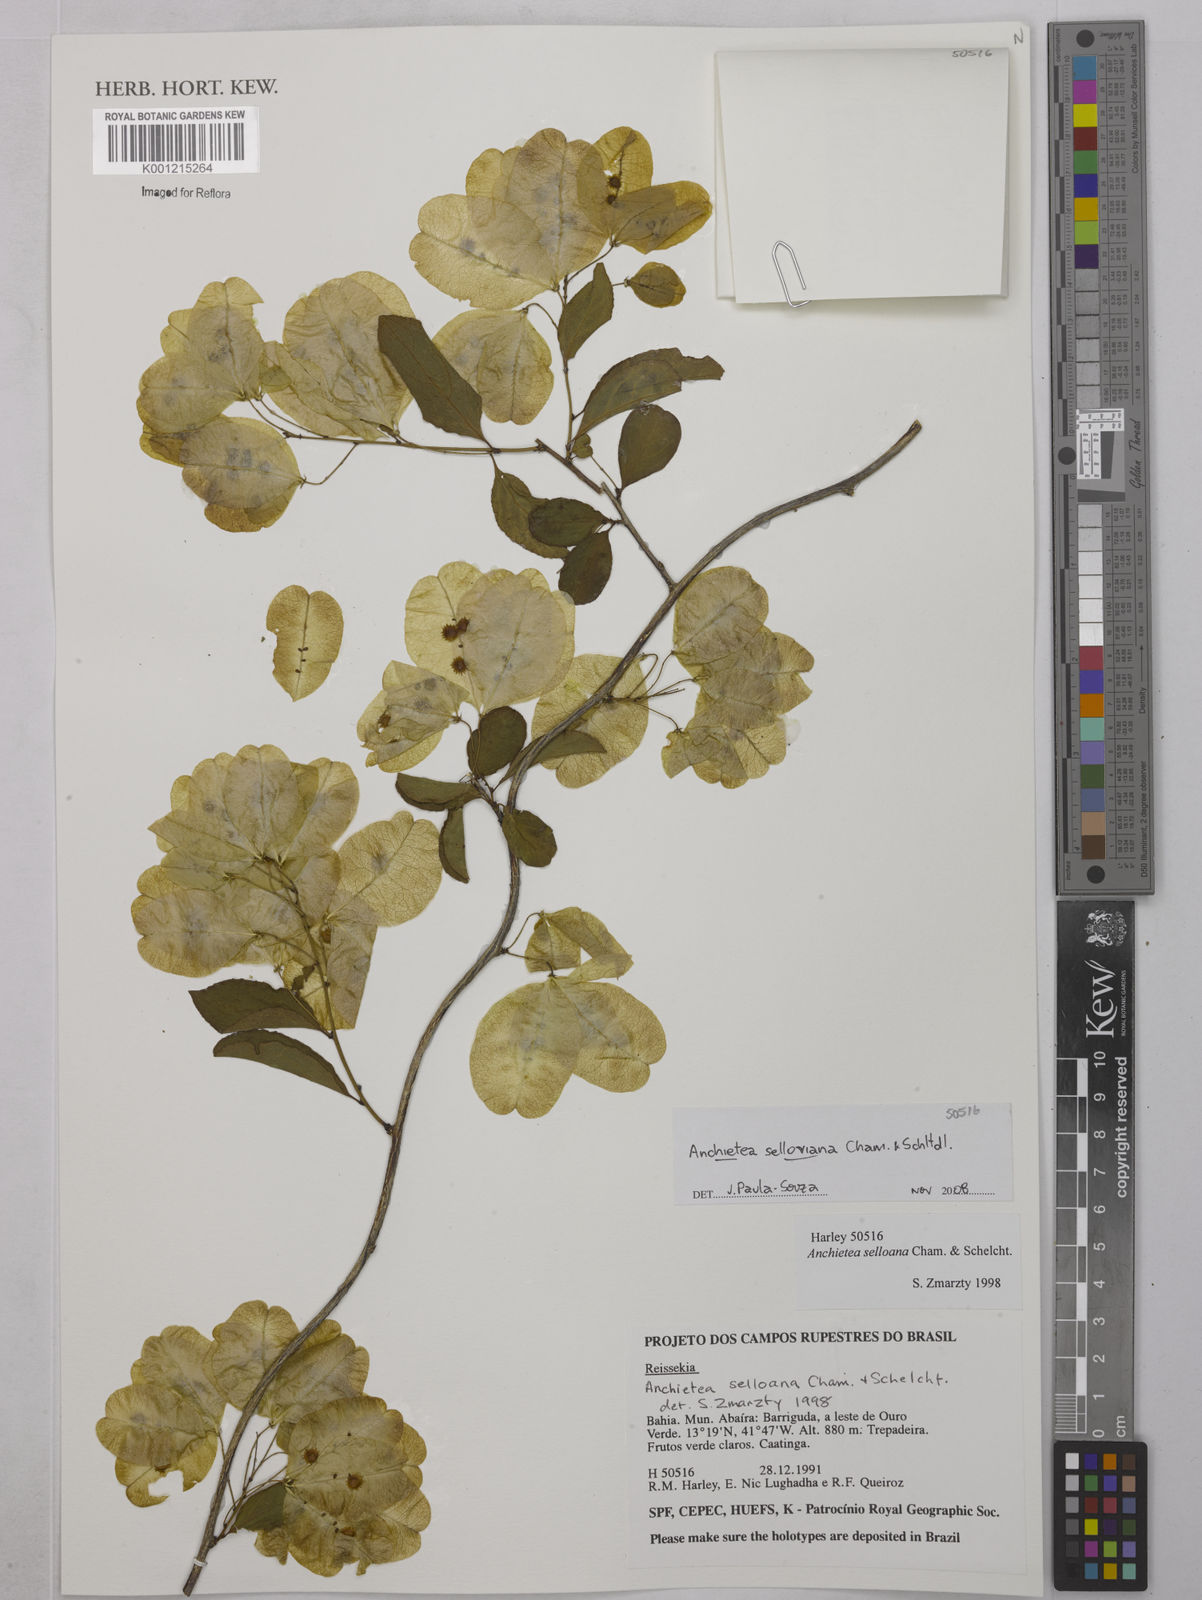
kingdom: Plantae
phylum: Tracheophyta
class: Magnoliopsida
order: Malpighiales
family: Violaceae
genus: Anchietea
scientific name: Anchietea sellowiana
